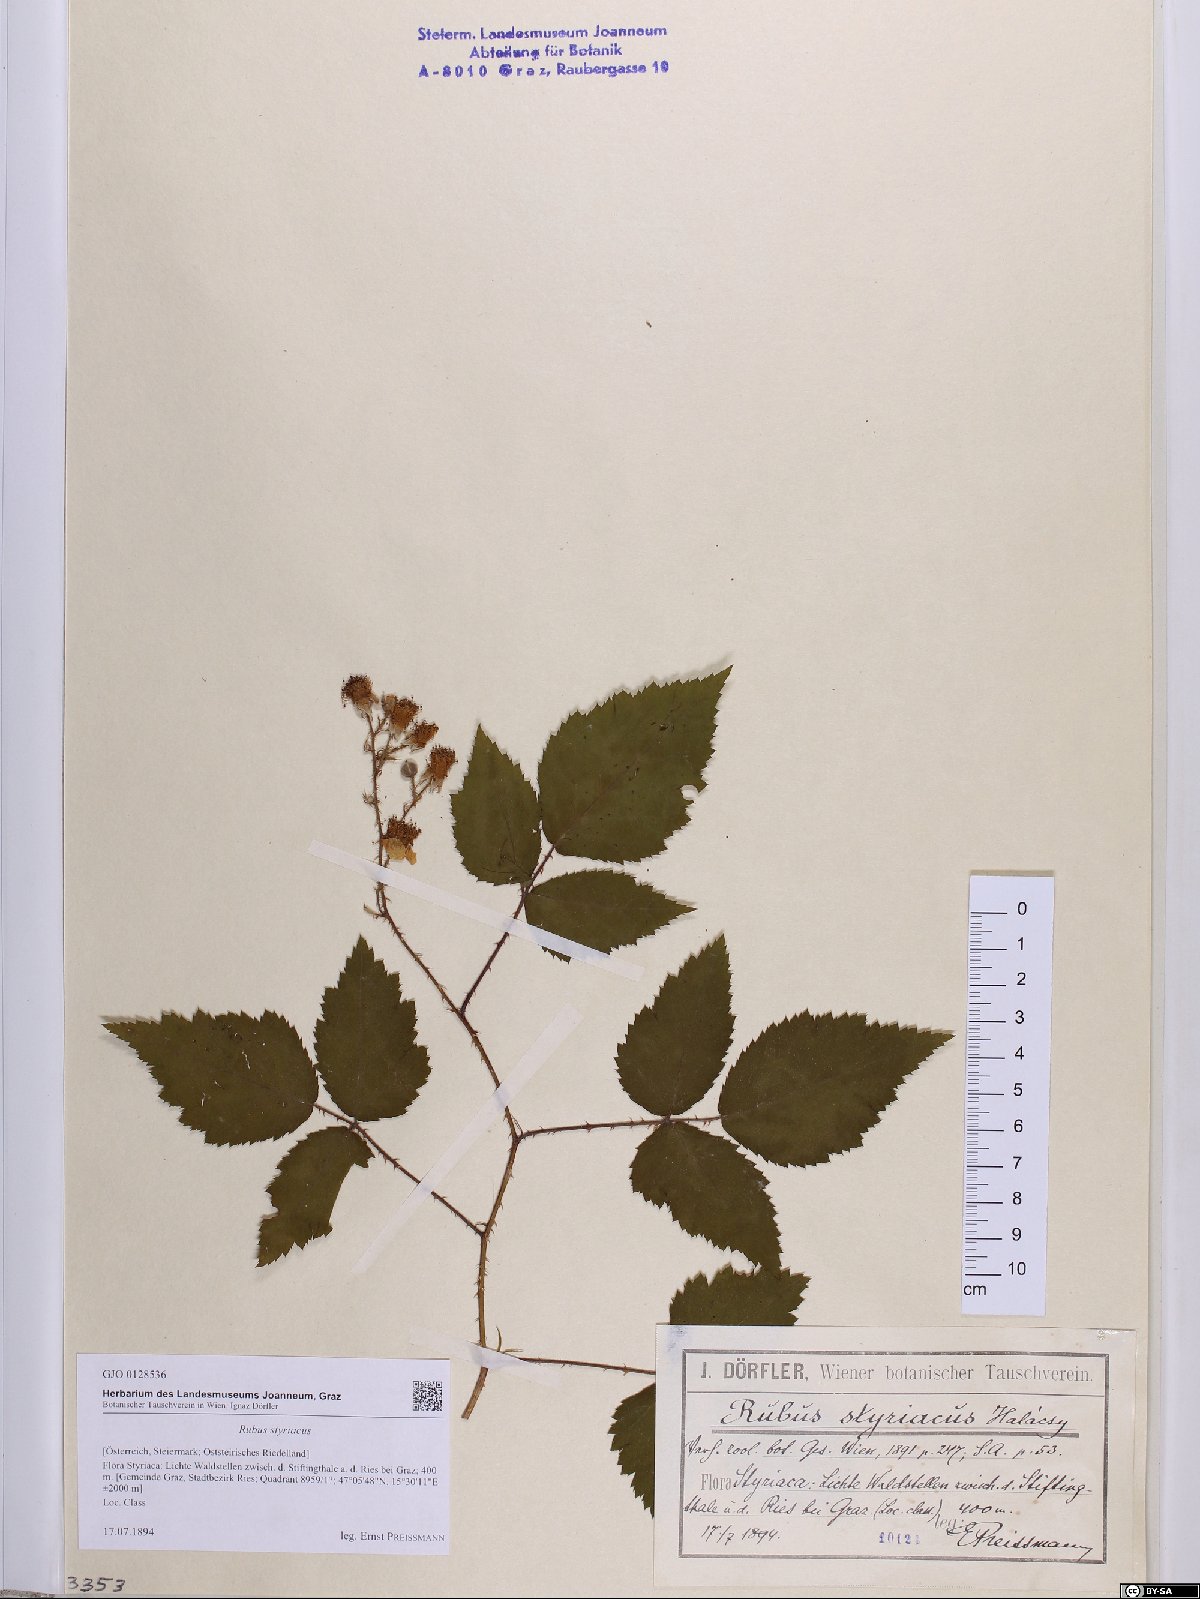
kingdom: Plantae
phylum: Tracheophyta
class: Magnoliopsida
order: Rosales
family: Rosaceae
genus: Rubus
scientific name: Rubus styriacus
